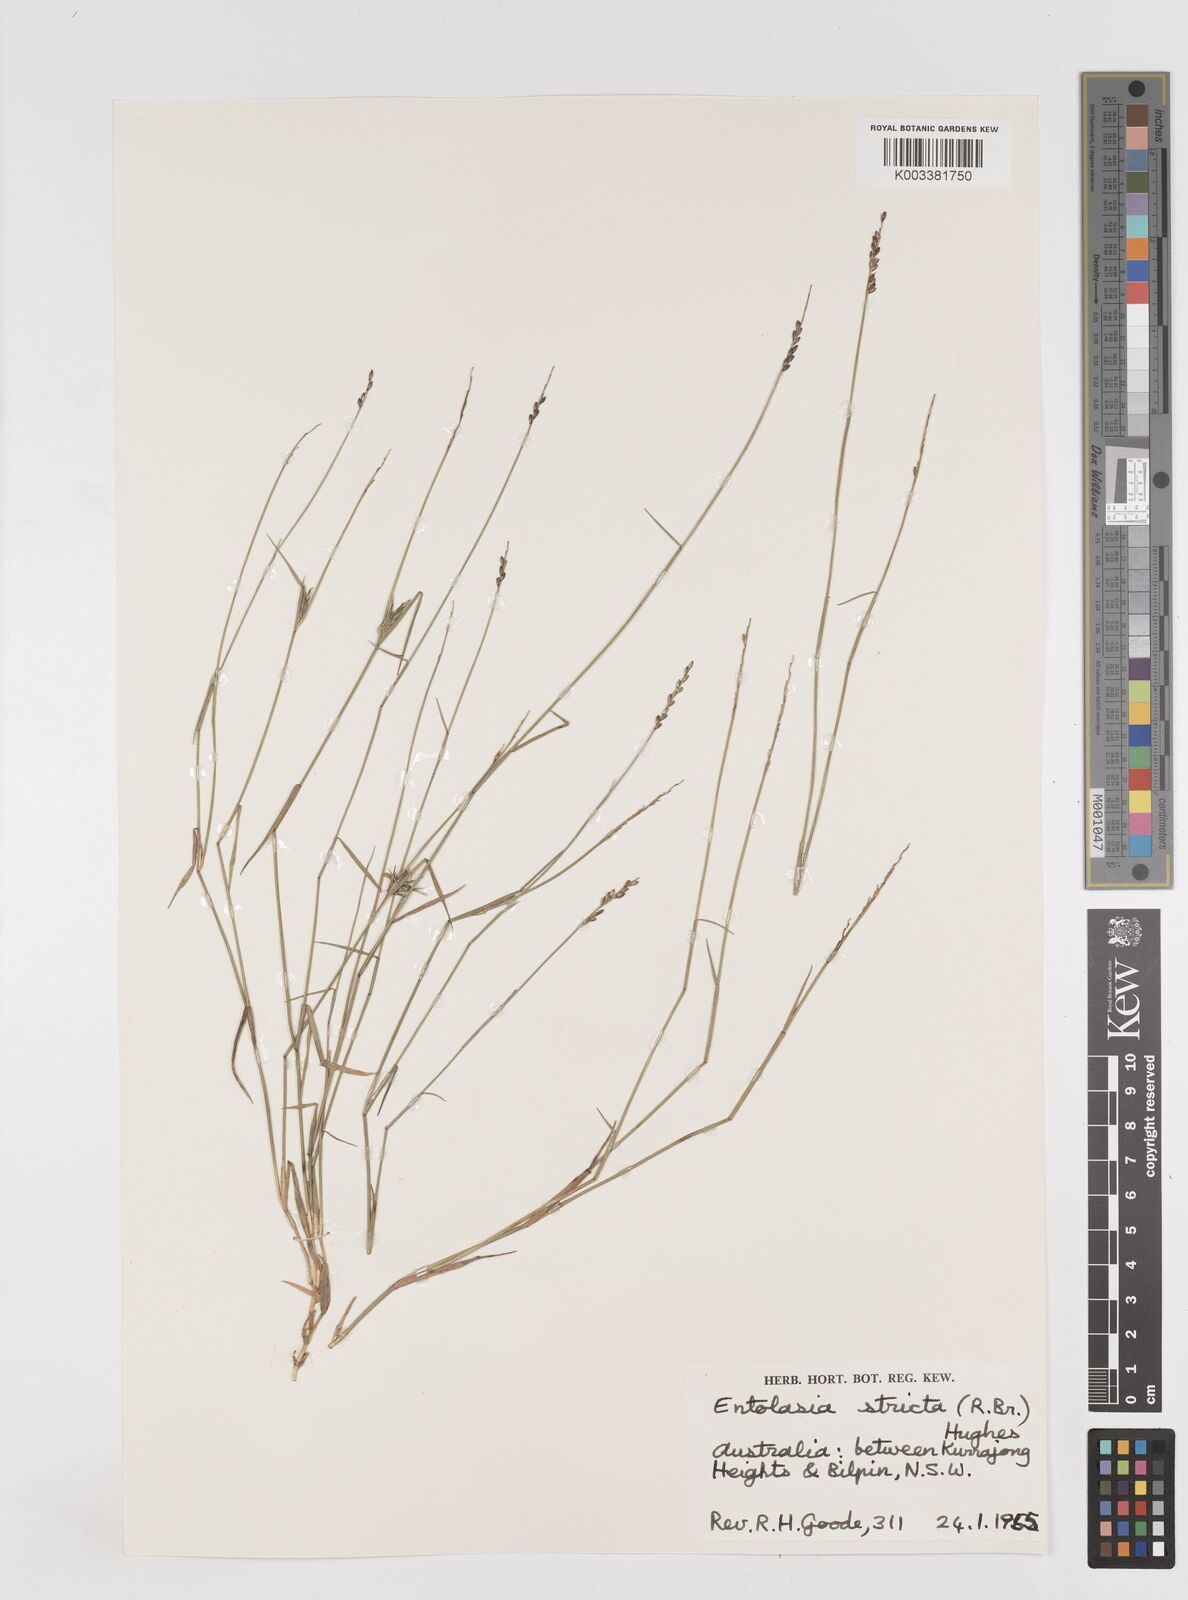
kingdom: Plantae
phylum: Tracheophyta
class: Liliopsida
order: Poales
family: Poaceae
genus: Entolasia
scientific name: Entolasia stricta
